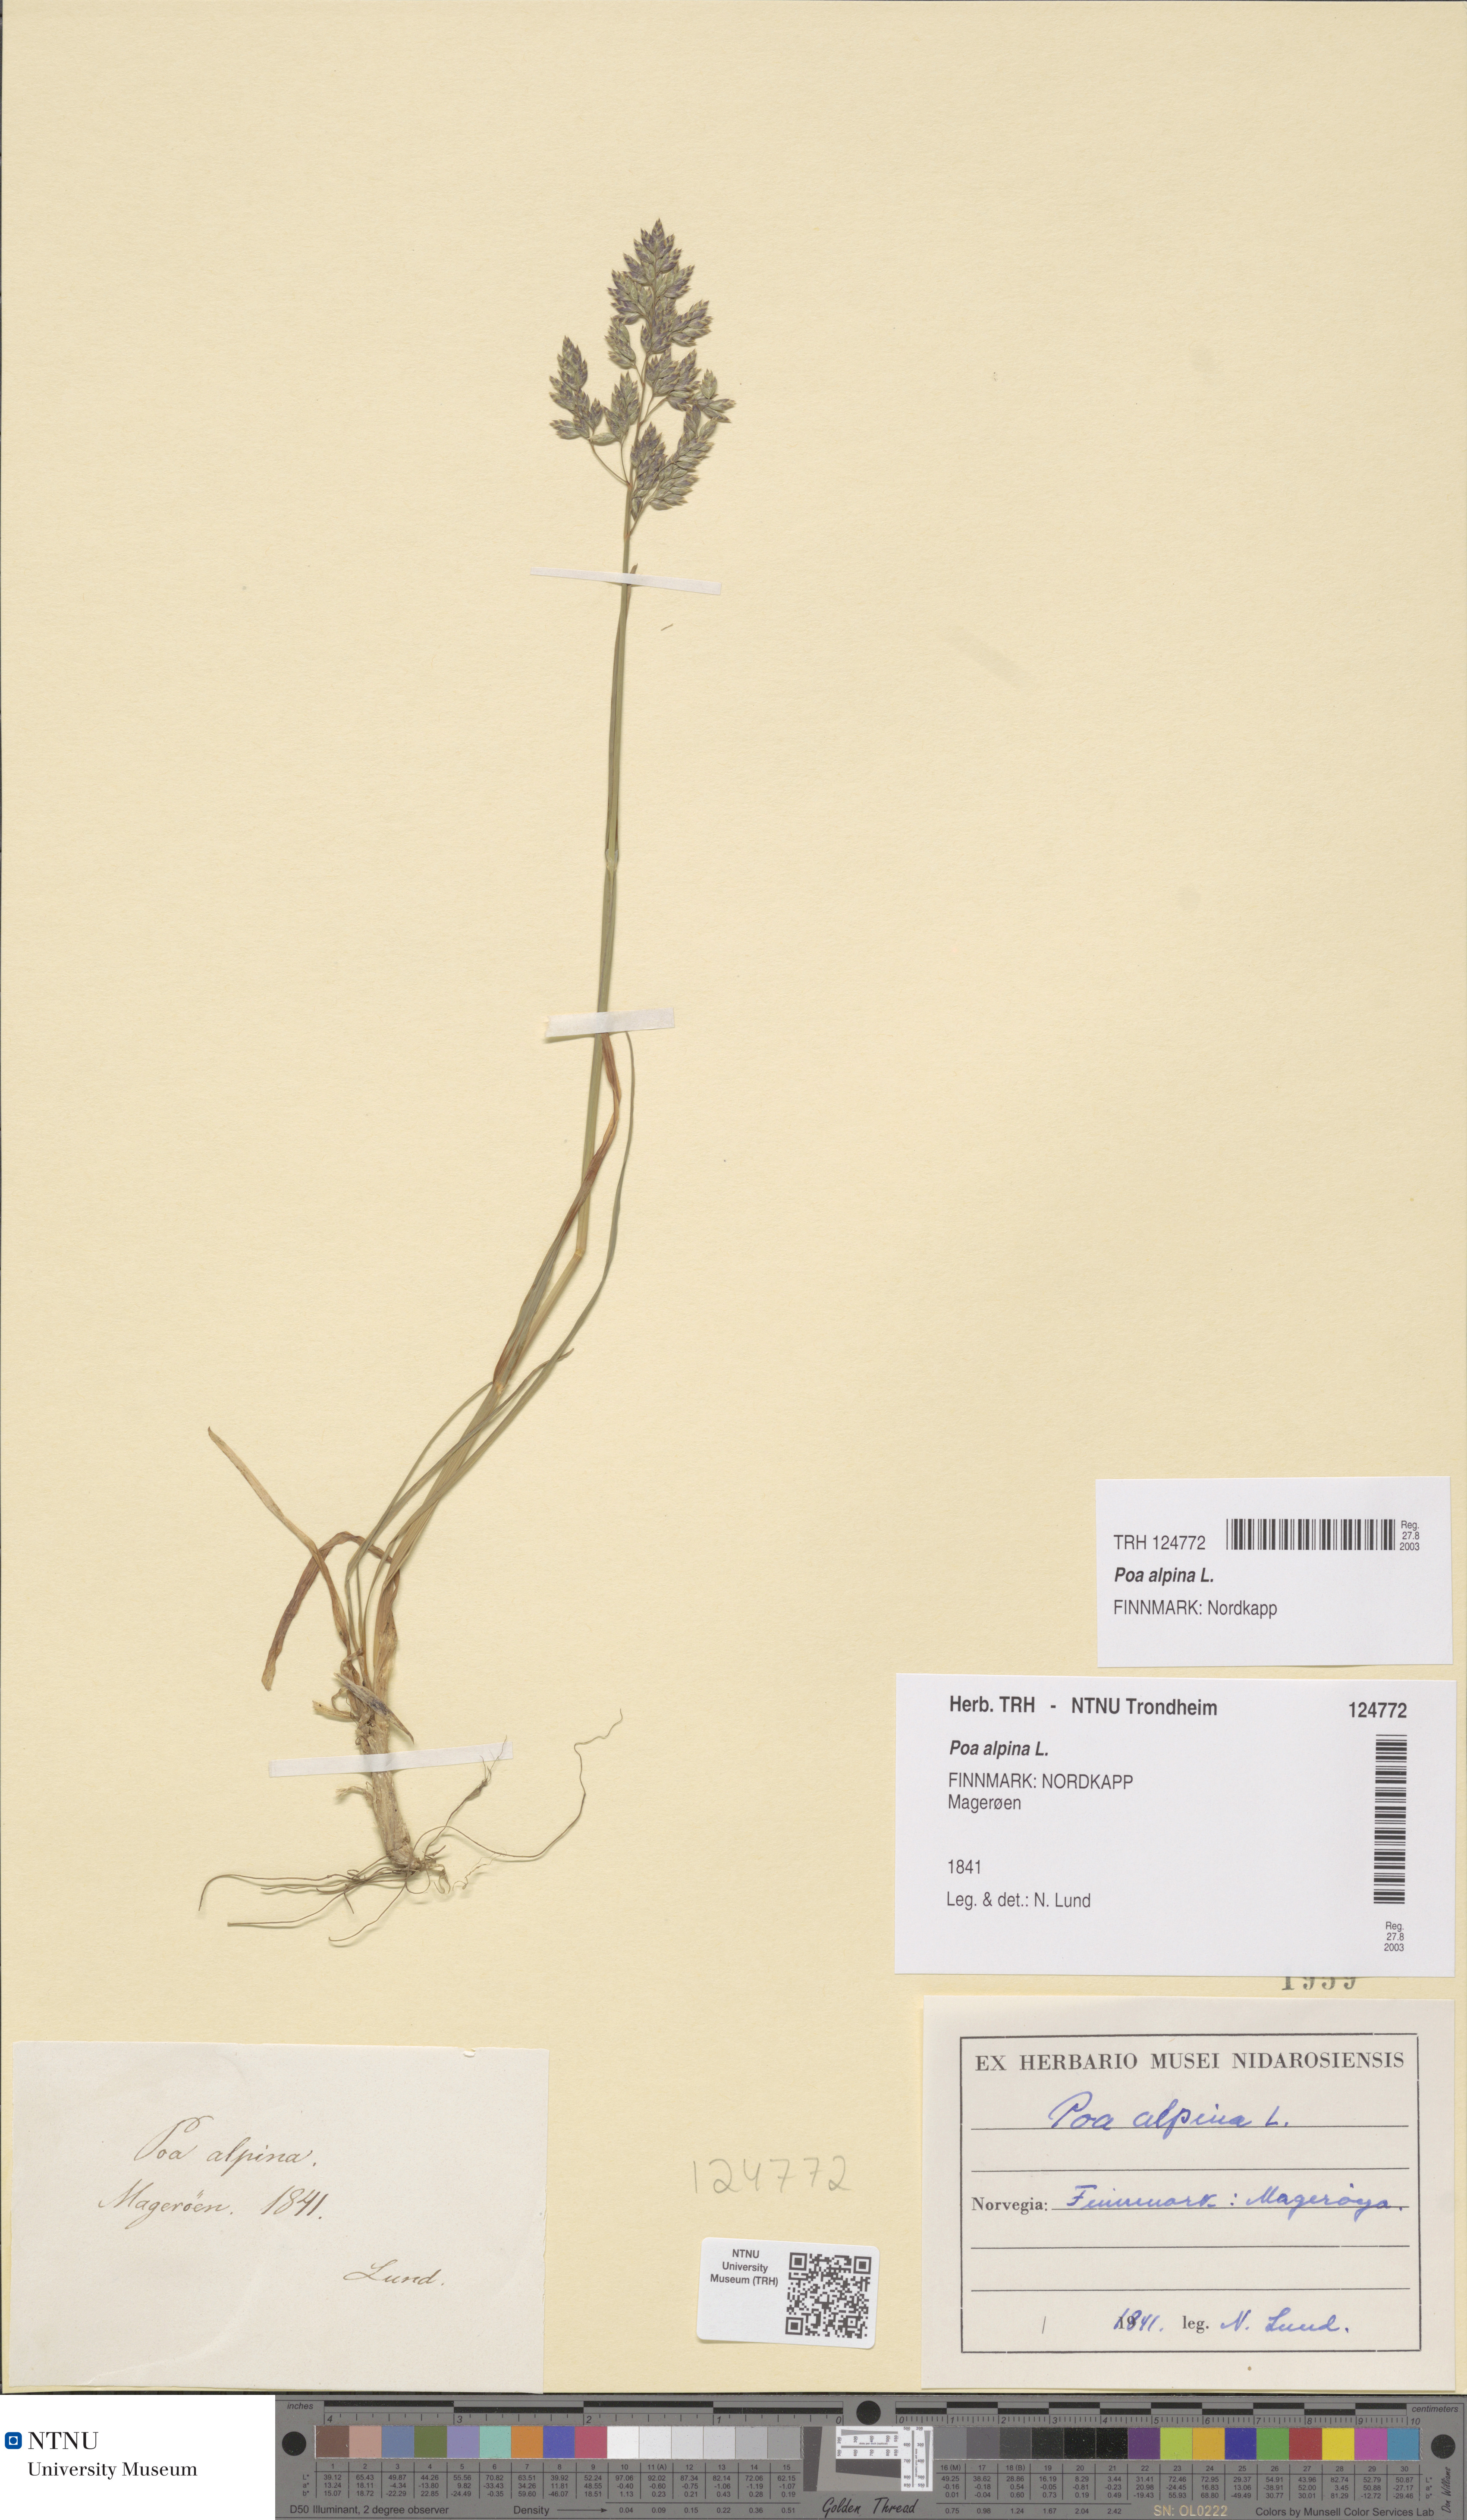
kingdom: Plantae
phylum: Tracheophyta
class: Liliopsida
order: Poales
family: Poaceae
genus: Poa
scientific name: Poa alpina
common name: Alpine bluegrass
